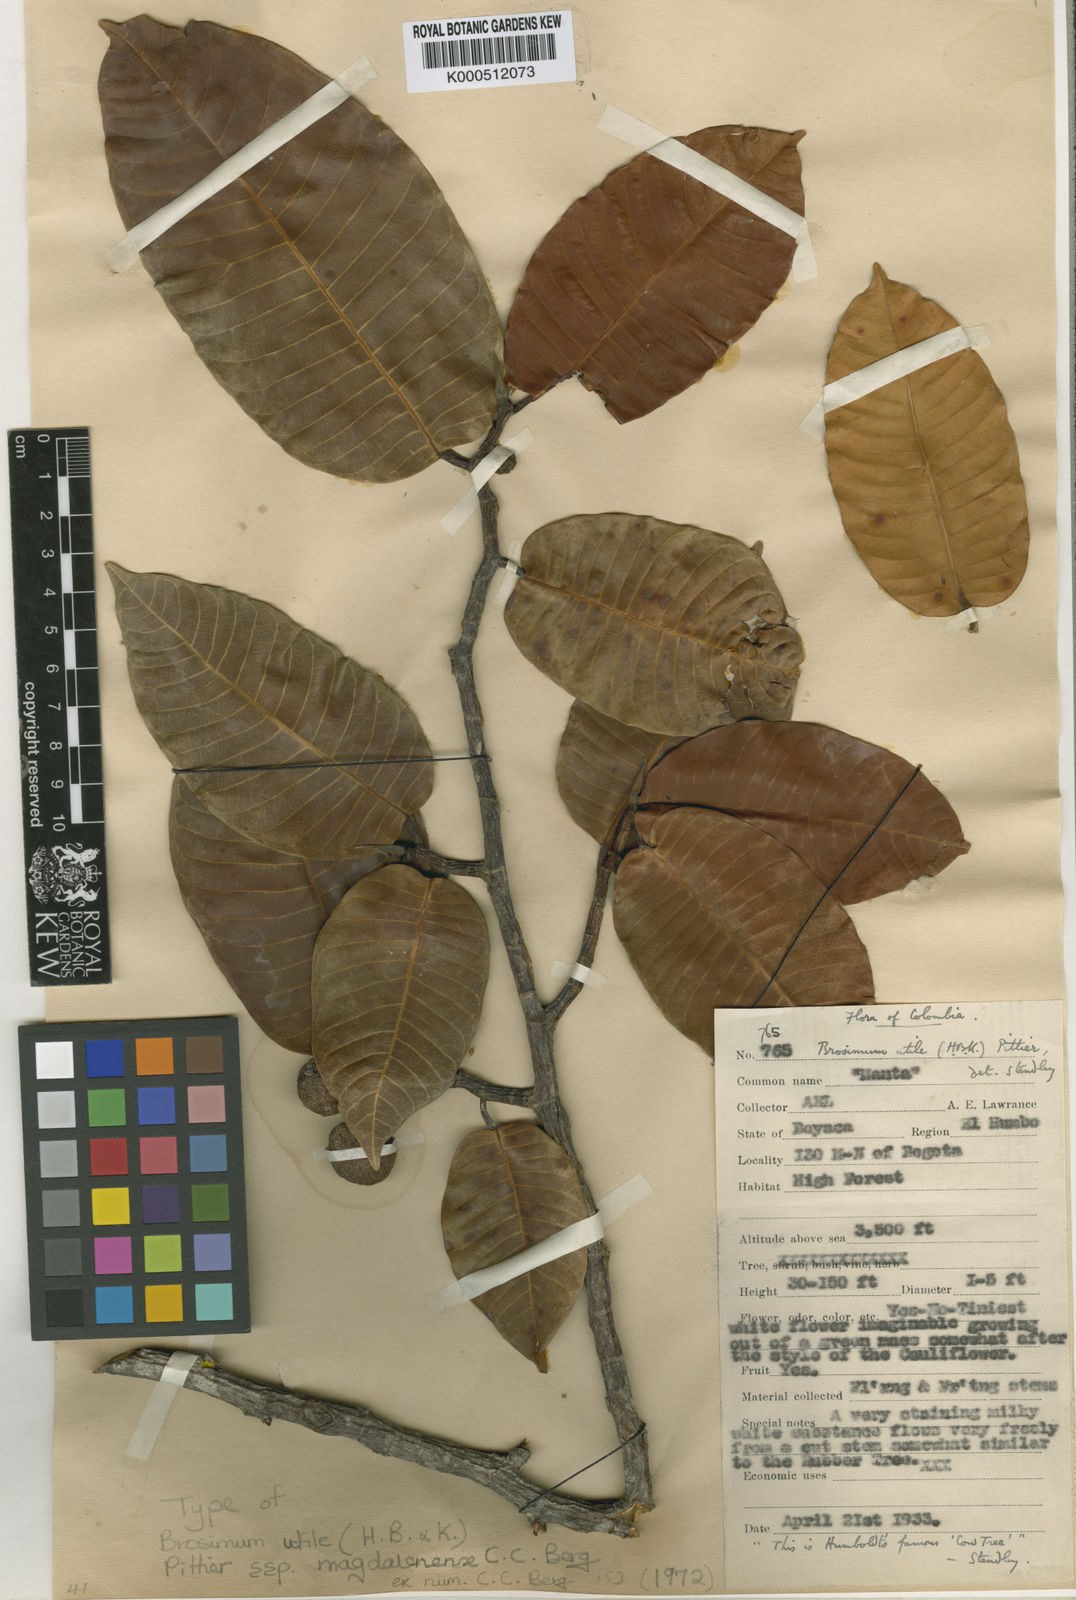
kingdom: Plantae
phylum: Tracheophyta
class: Magnoliopsida
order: Rosales
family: Moraceae
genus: Brosimum
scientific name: Brosimum
